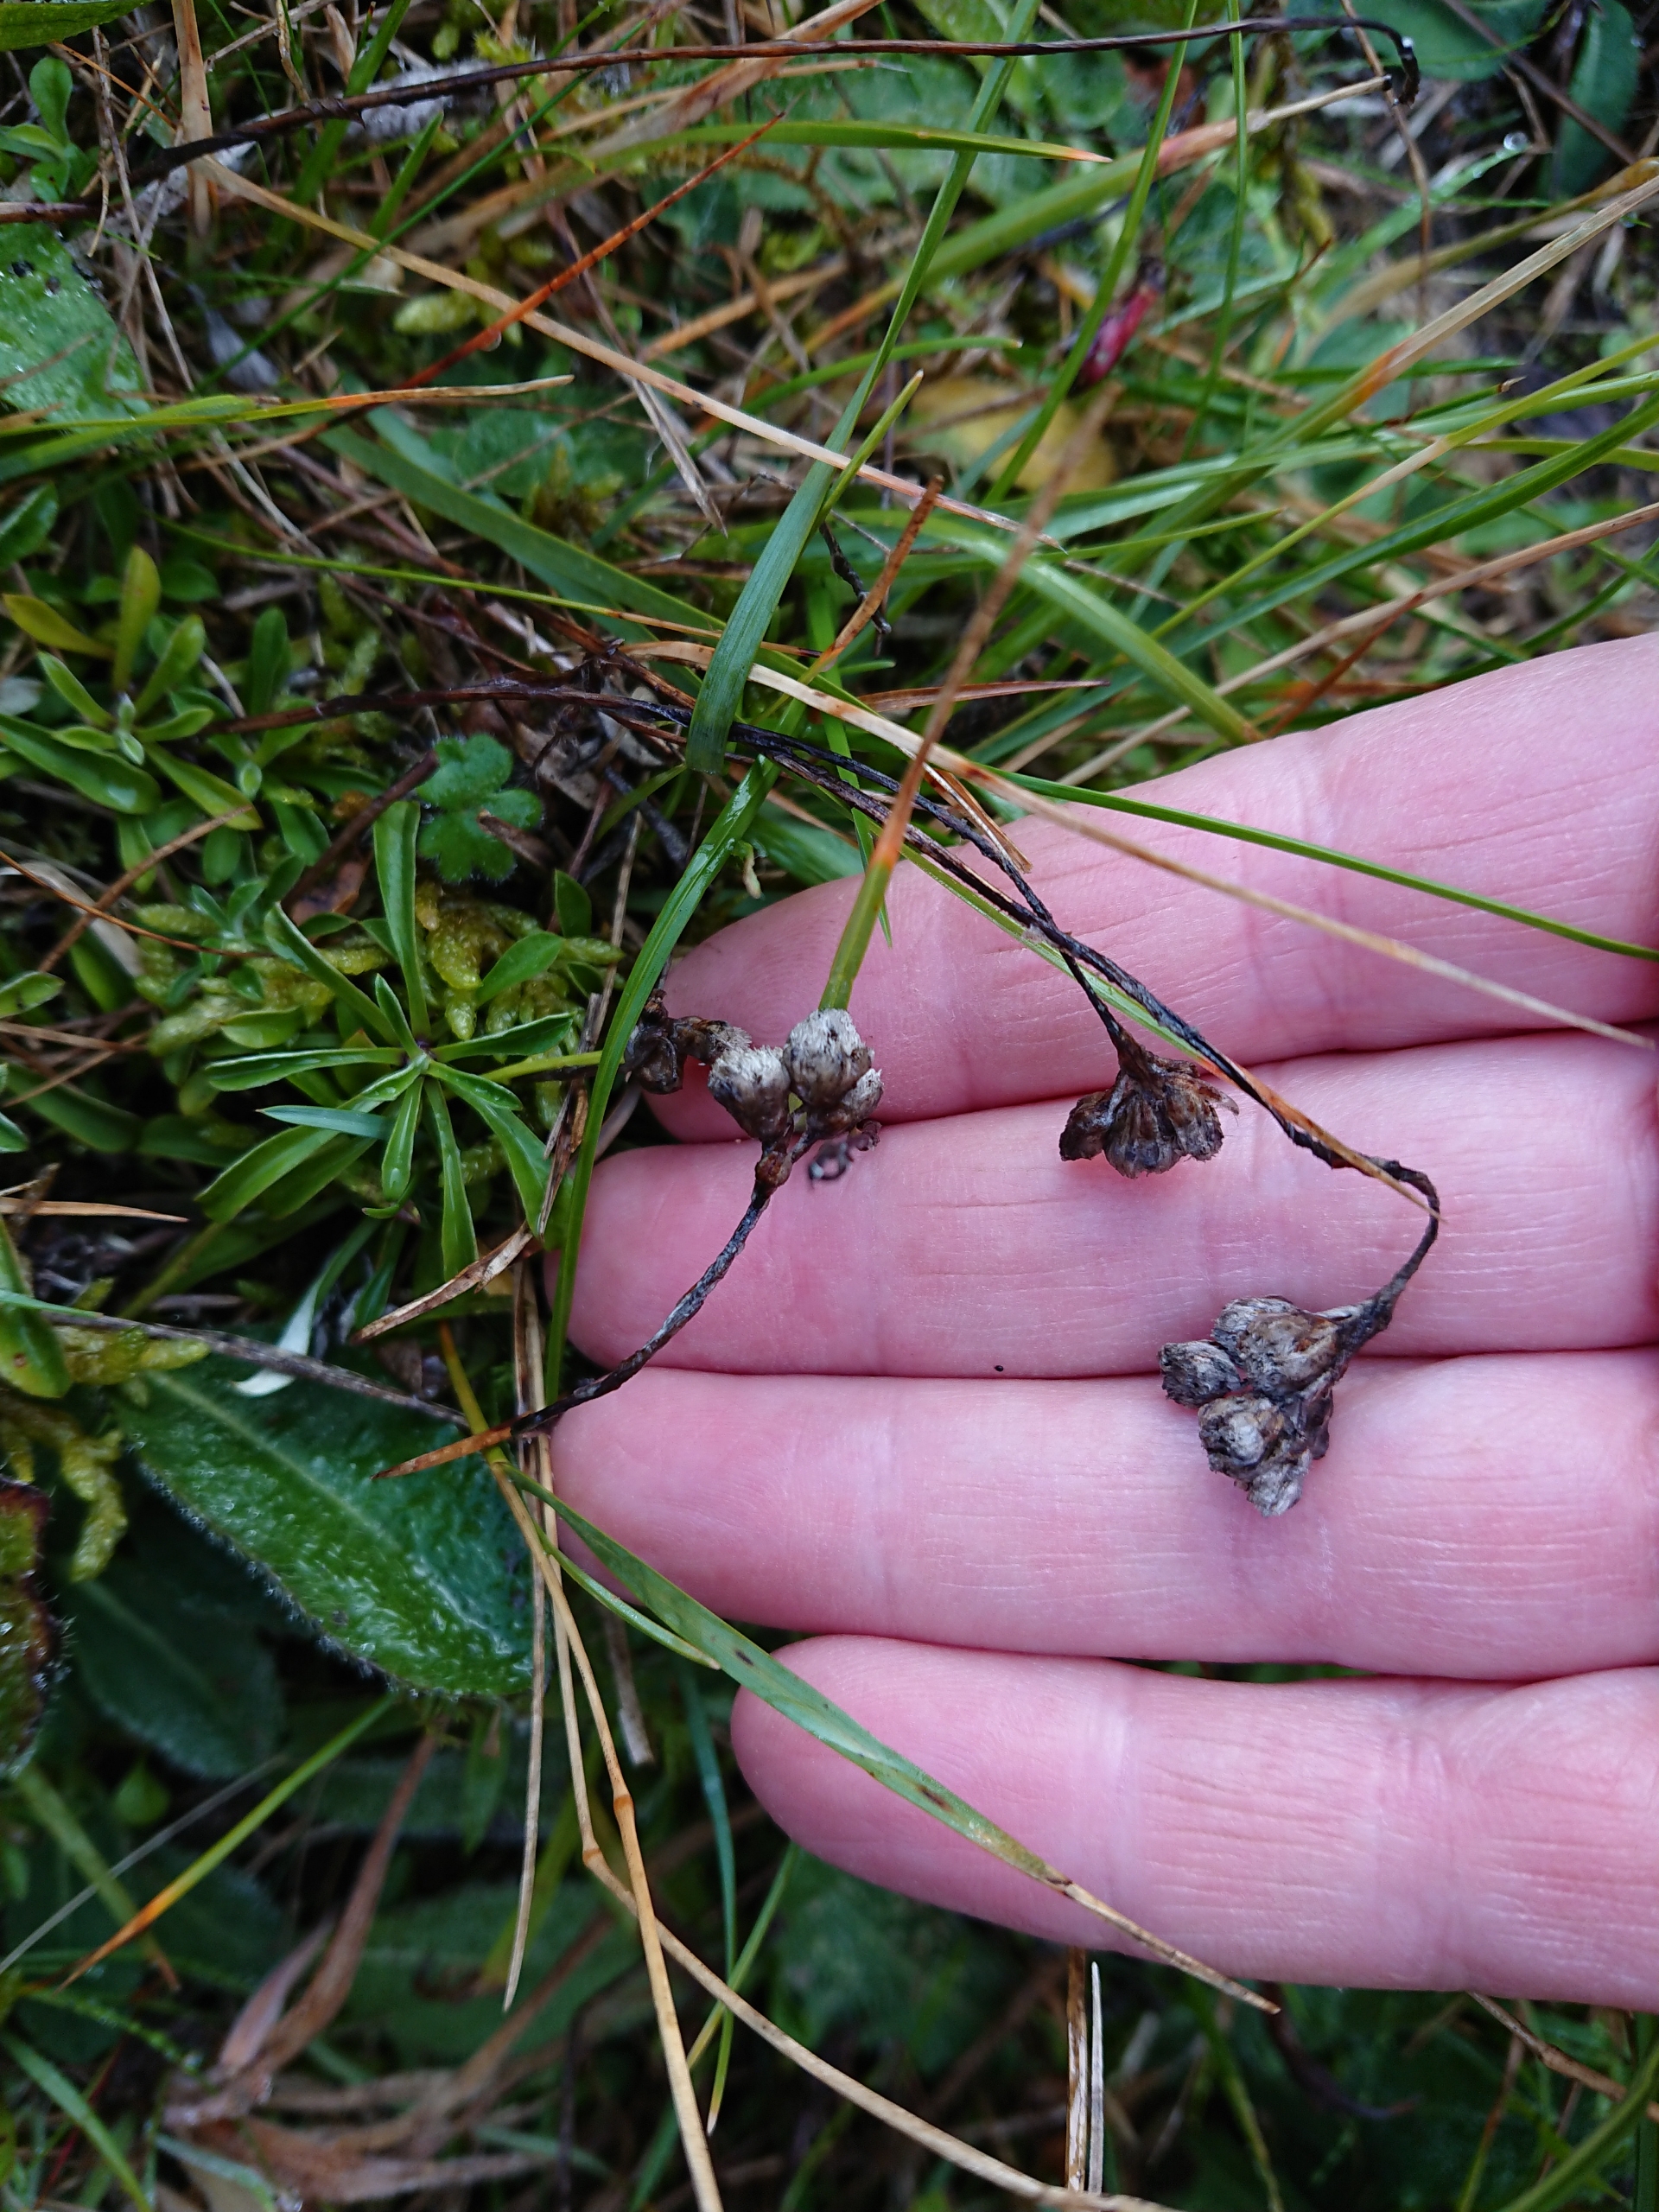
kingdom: Plantae
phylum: Tracheophyta
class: Magnoliopsida
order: Asterales
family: Asteraceae
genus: Antennaria
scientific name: Antennaria dioica
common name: Kattefod
